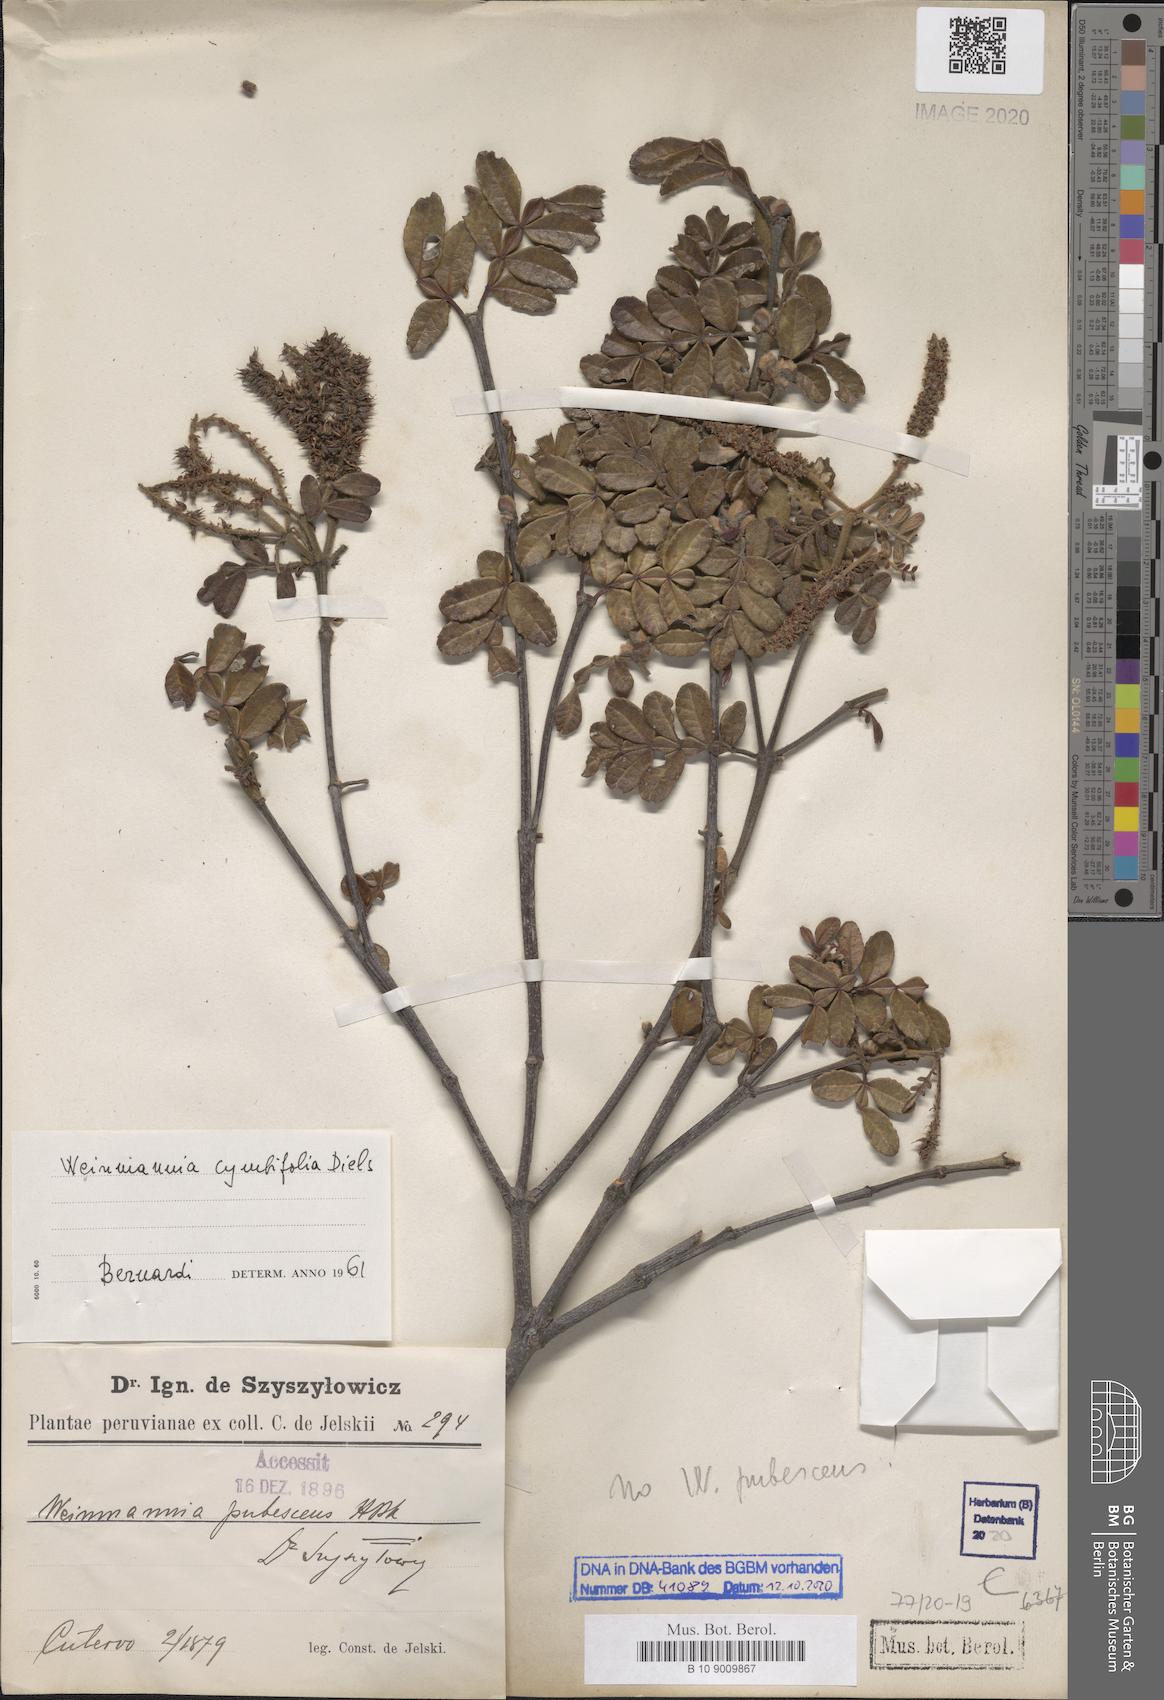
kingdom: Plantae
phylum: Tracheophyta
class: Magnoliopsida
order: Oxalidales
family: Cunoniaceae
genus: Weinmannia
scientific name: Weinmannia cymbifolia
